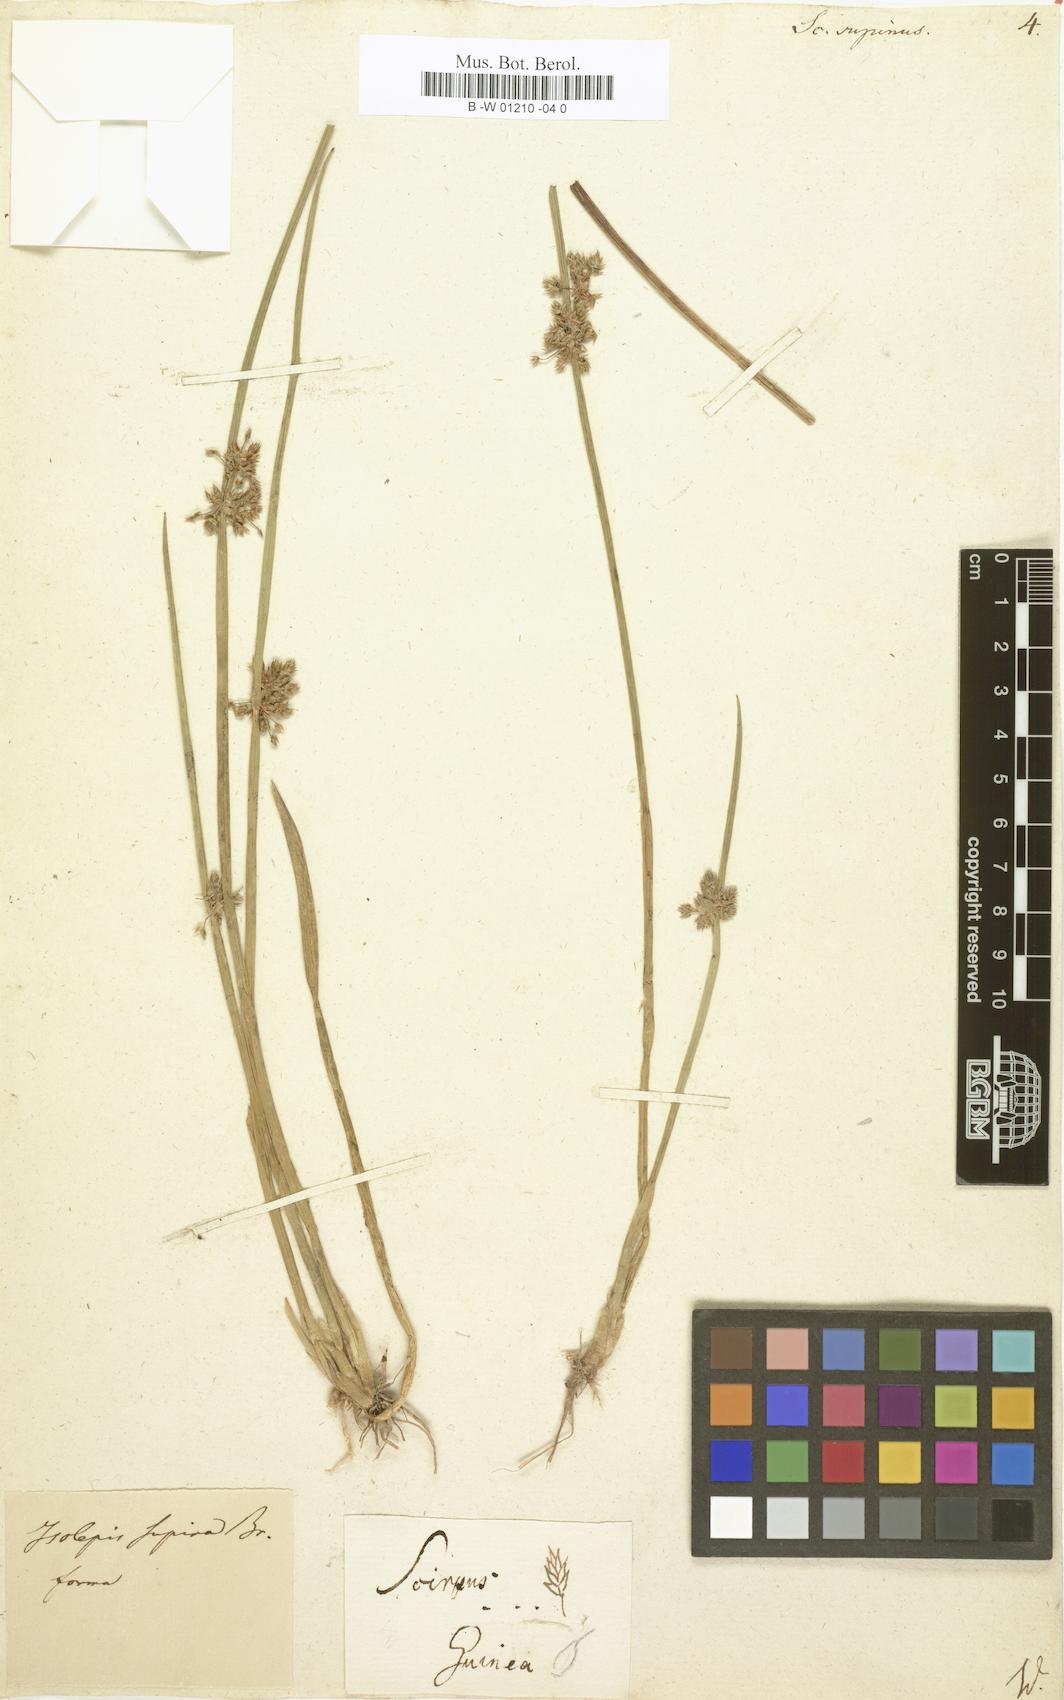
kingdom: Plantae
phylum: Tracheophyta
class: Liliopsida
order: Poales
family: Cyperaceae
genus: Scirpus
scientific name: Scirpus supinus
